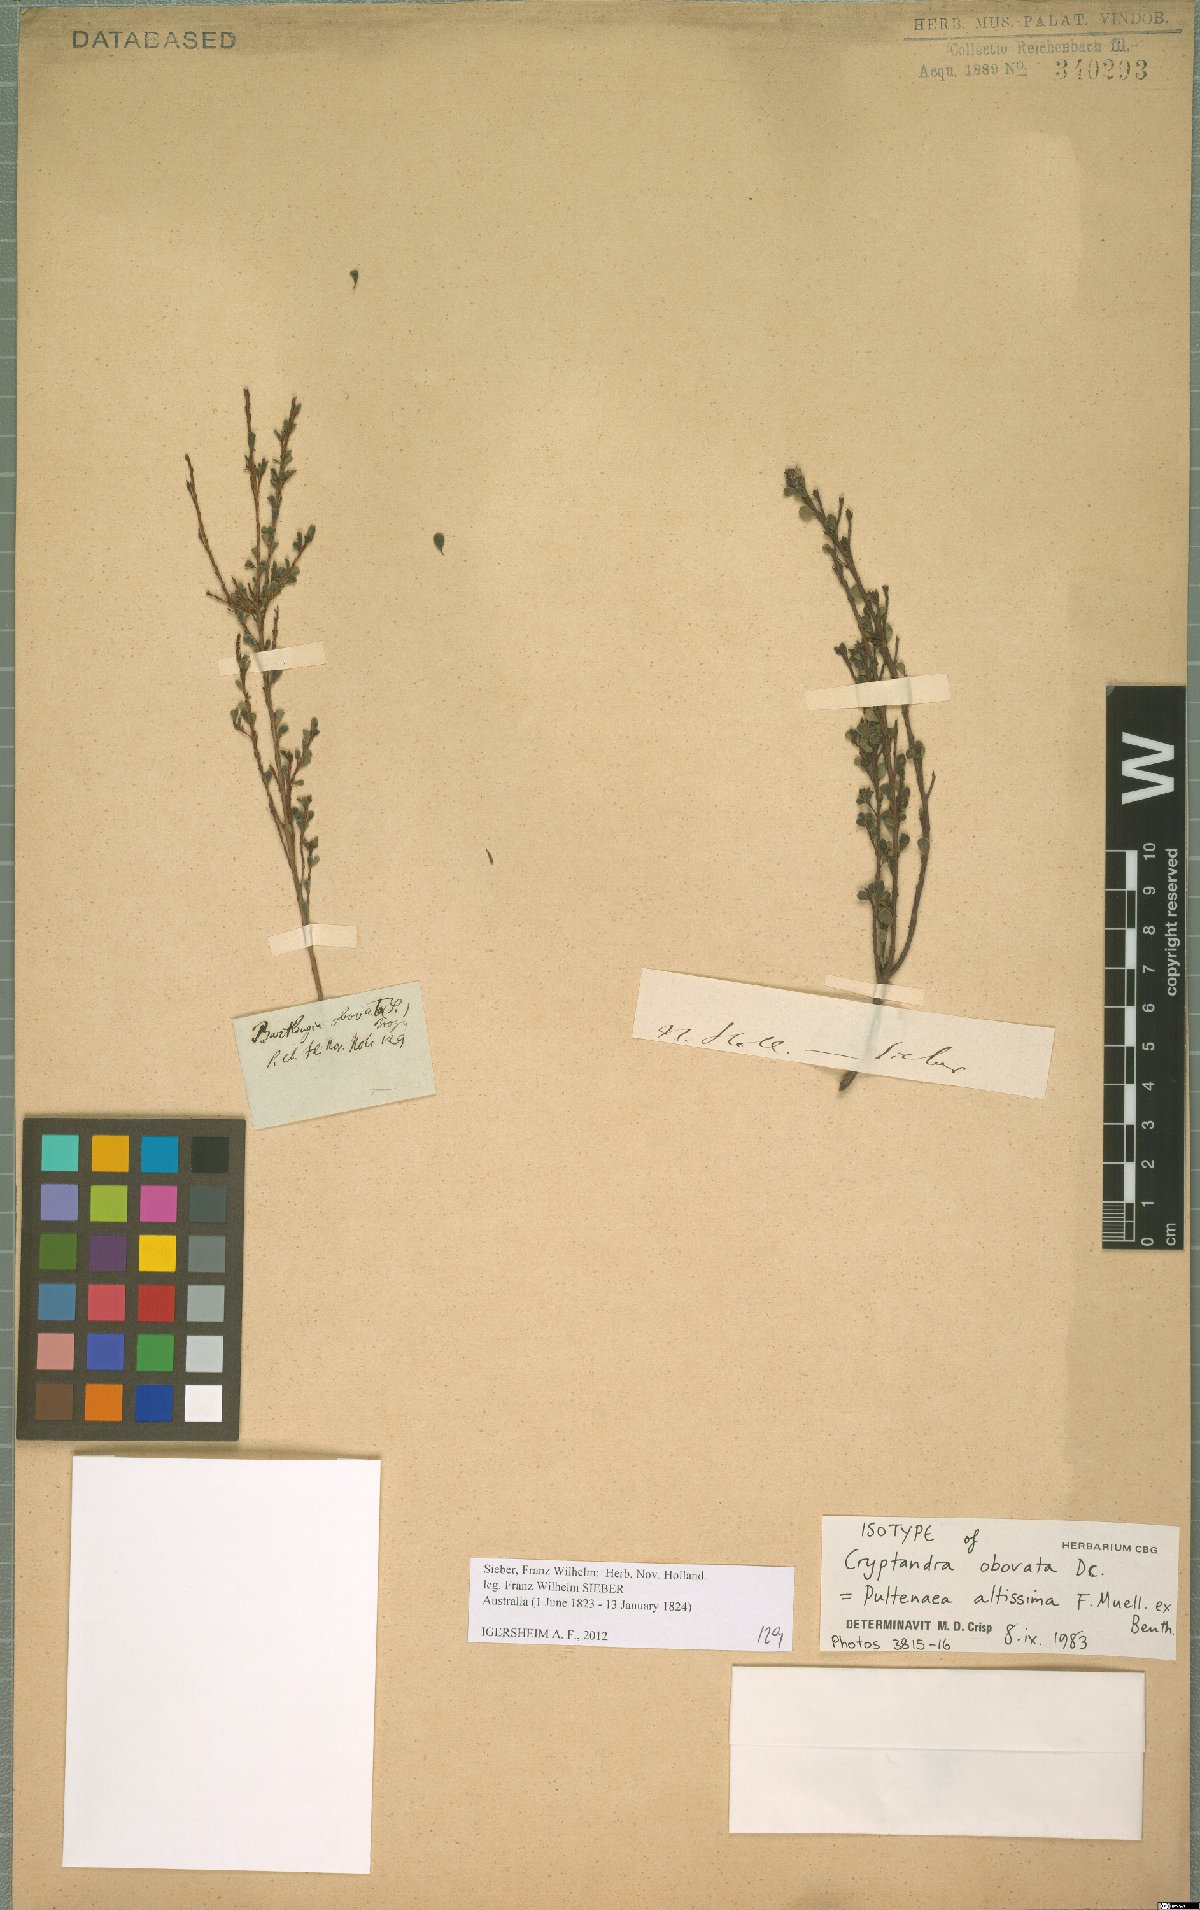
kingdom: Plantae
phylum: Tracheophyta
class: Magnoliopsida
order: Fabales
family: Fabaceae
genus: Pultenaea
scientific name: Pultenaea altissima
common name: Tall bush-pea
